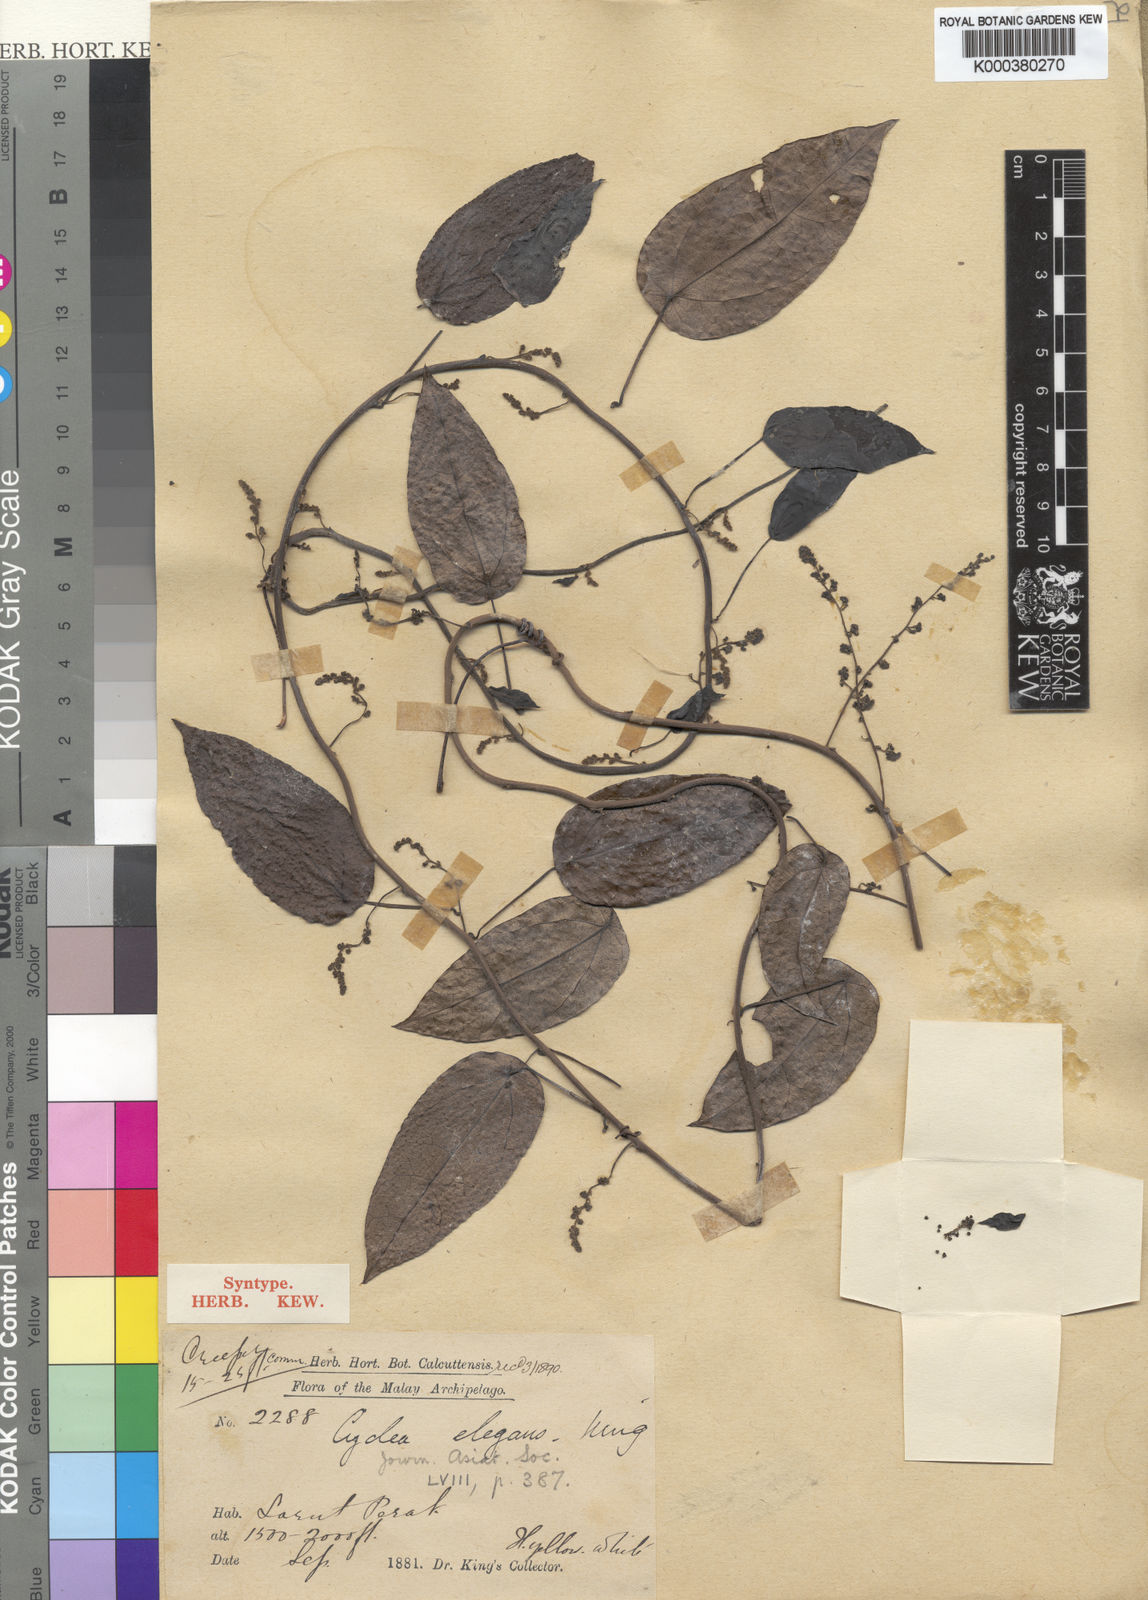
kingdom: Plantae
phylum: Tracheophyta
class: Magnoliopsida
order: Ranunculales
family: Menispermaceae
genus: Cyclea
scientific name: Cyclea elegans
